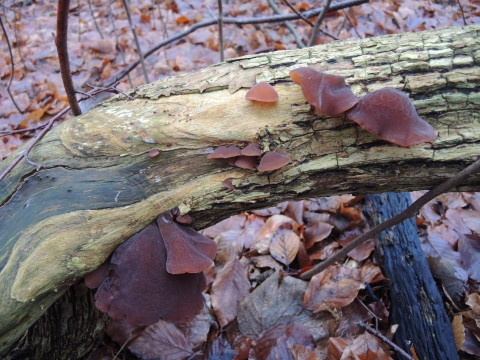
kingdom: Fungi
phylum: Basidiomycota
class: Agaricomycetes
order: Auriculariales
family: Auriculariaceae
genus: Auricularia
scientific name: Auricularia auricula-judae
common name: almindelig judasøre
